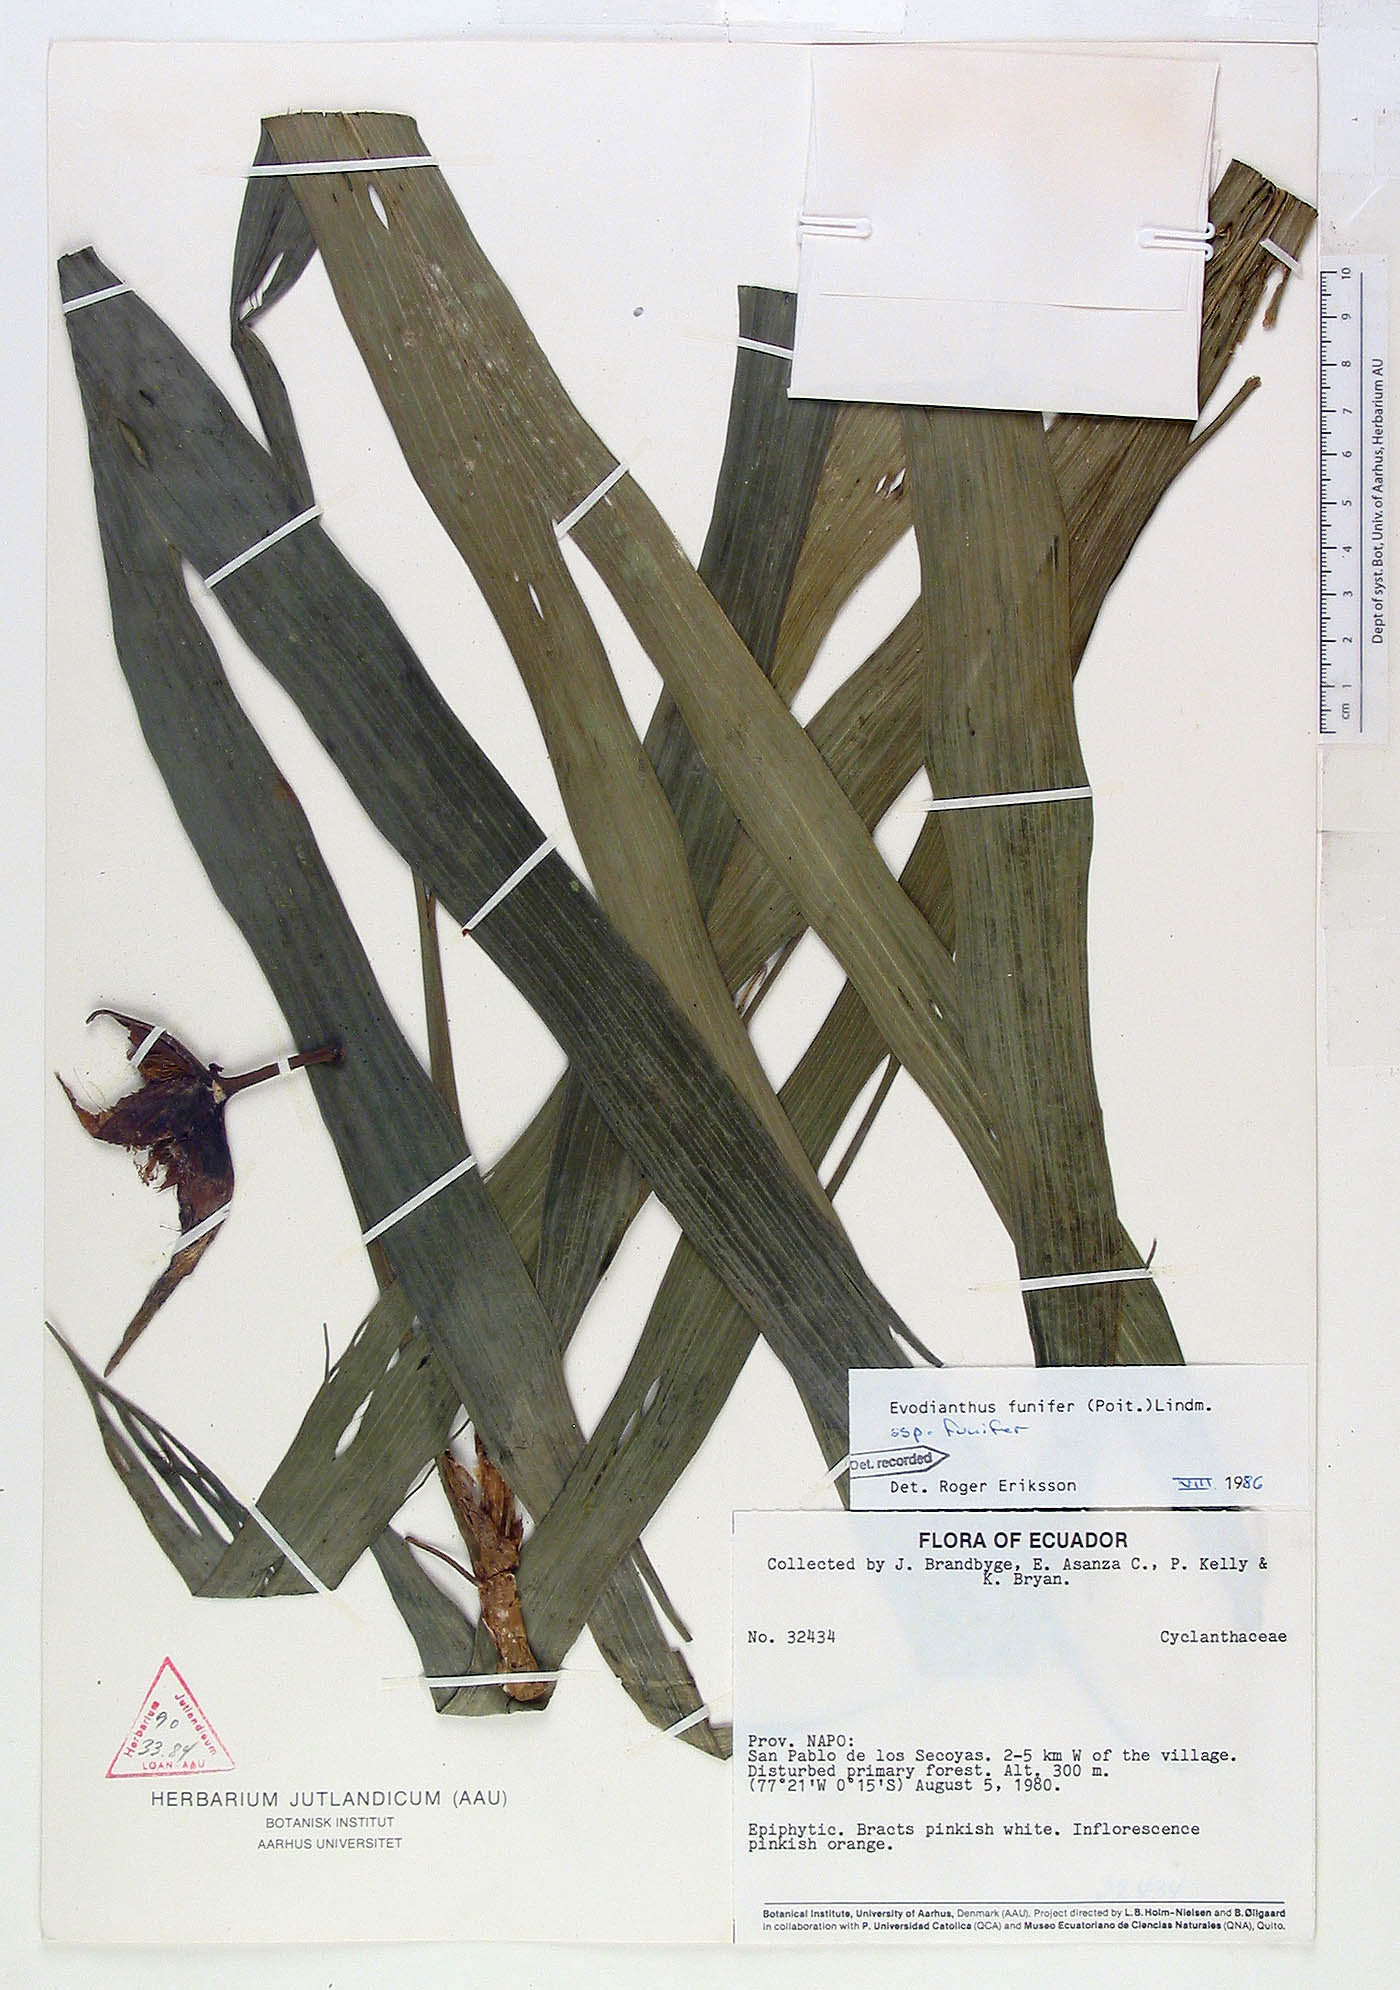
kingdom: Plantae
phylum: Tracheophyta
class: Liliopsida
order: Pandanales
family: Cyclanthaceae
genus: Evodianthus
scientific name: Evodianthus funifer
